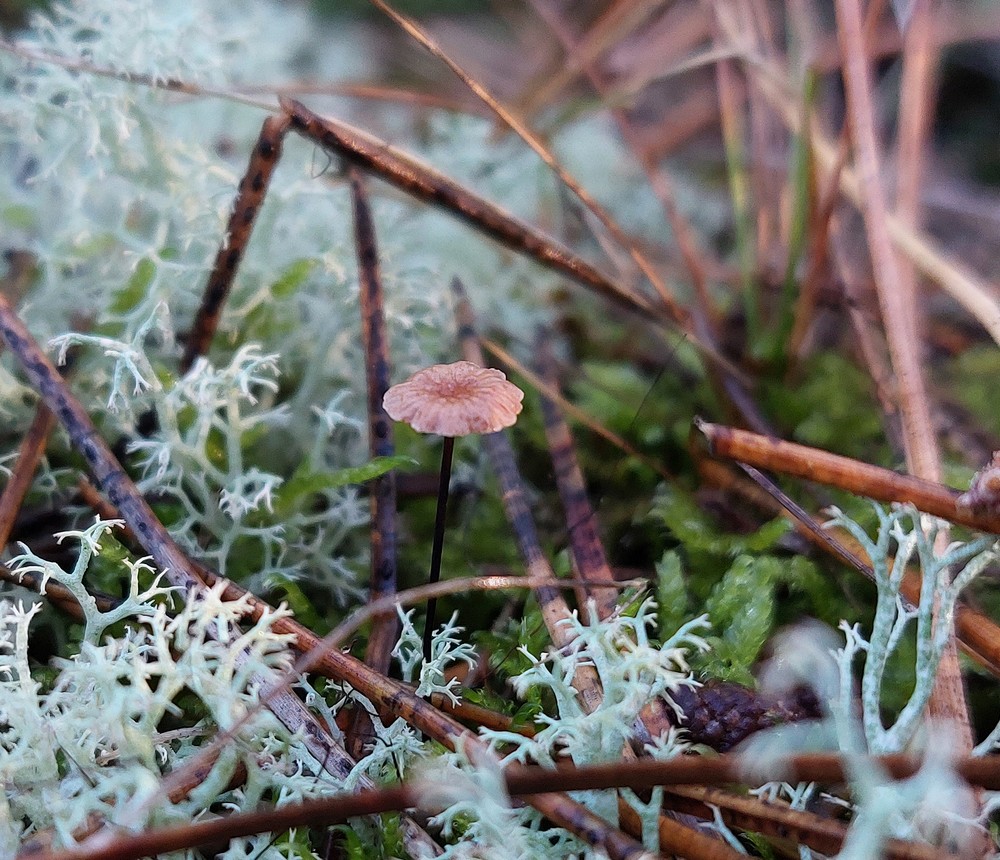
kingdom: Fungi
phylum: Basidiomycota
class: Agaricomycetes
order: Agaricales
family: Omphalotaceae
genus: Gymnopus
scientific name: Gymnopus androsaceus
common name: trådstokket fladhat
